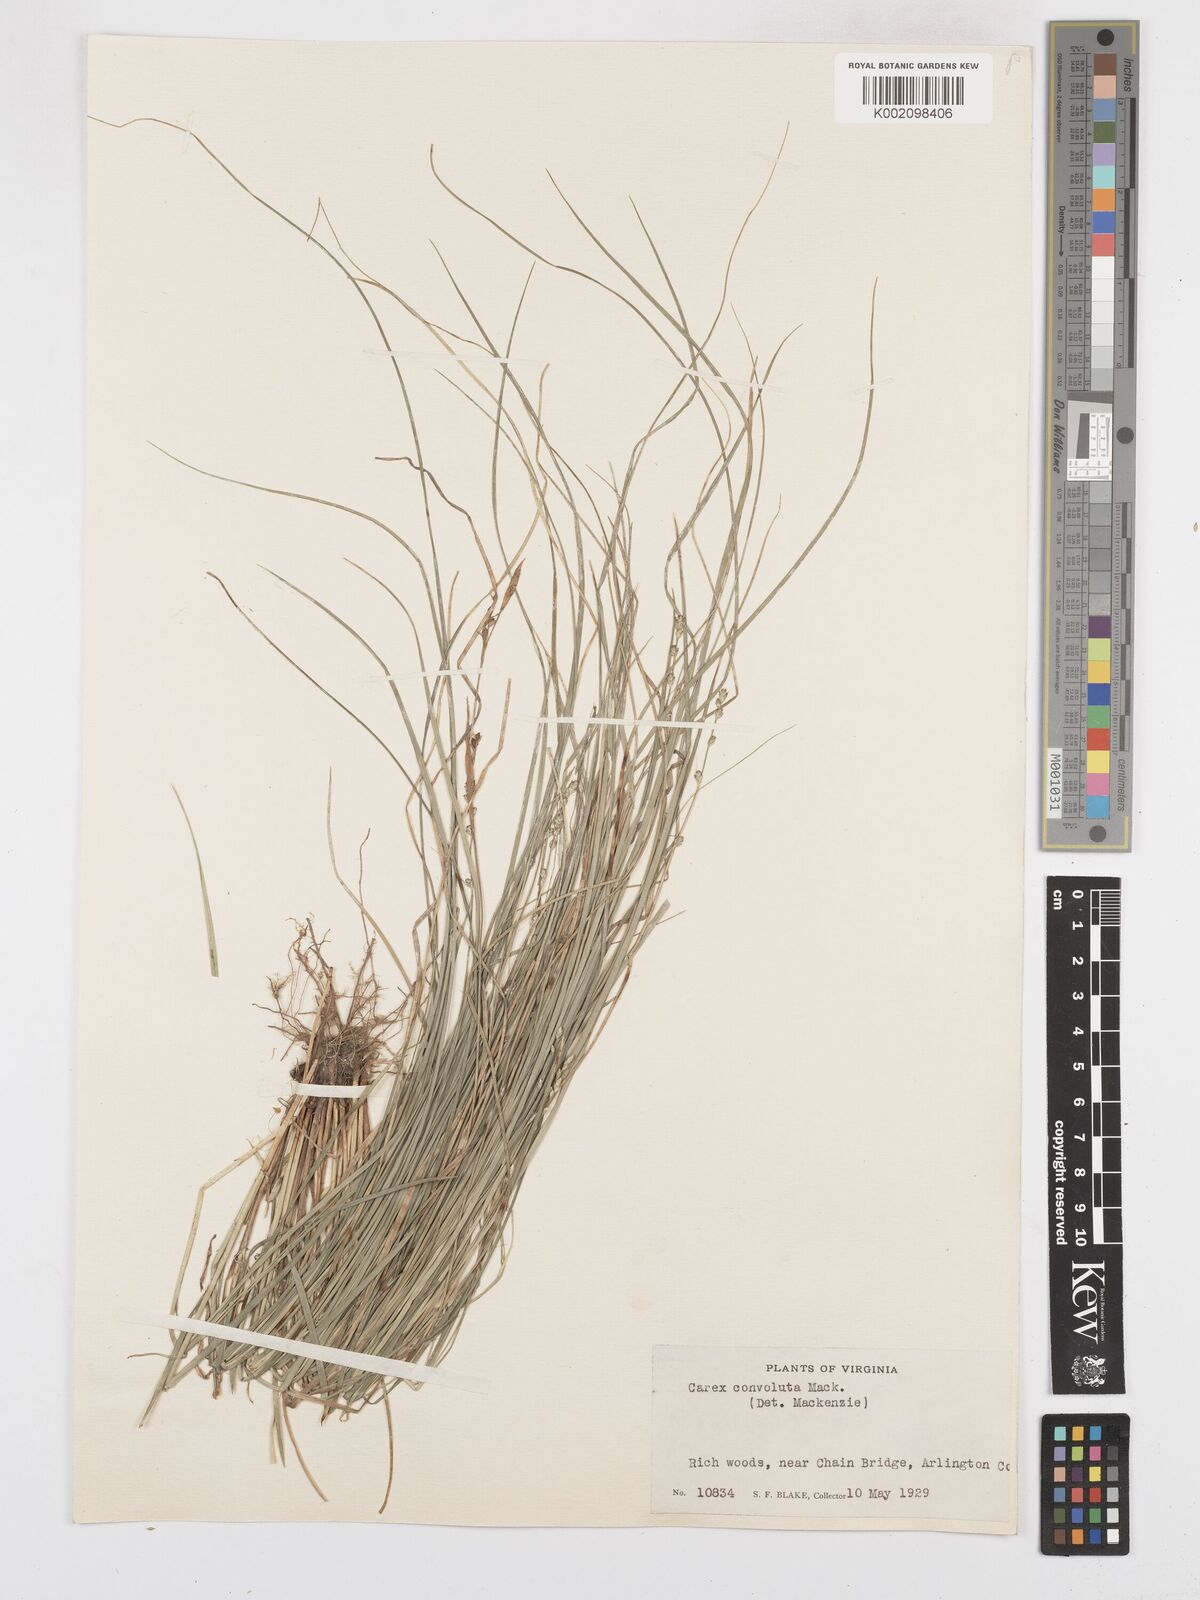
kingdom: Plantae
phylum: Tracheophyta
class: Liliopsida
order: Poales
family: Cyperaceae
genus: Carex
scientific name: Carex rosea
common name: Curly-styled wood sedge
